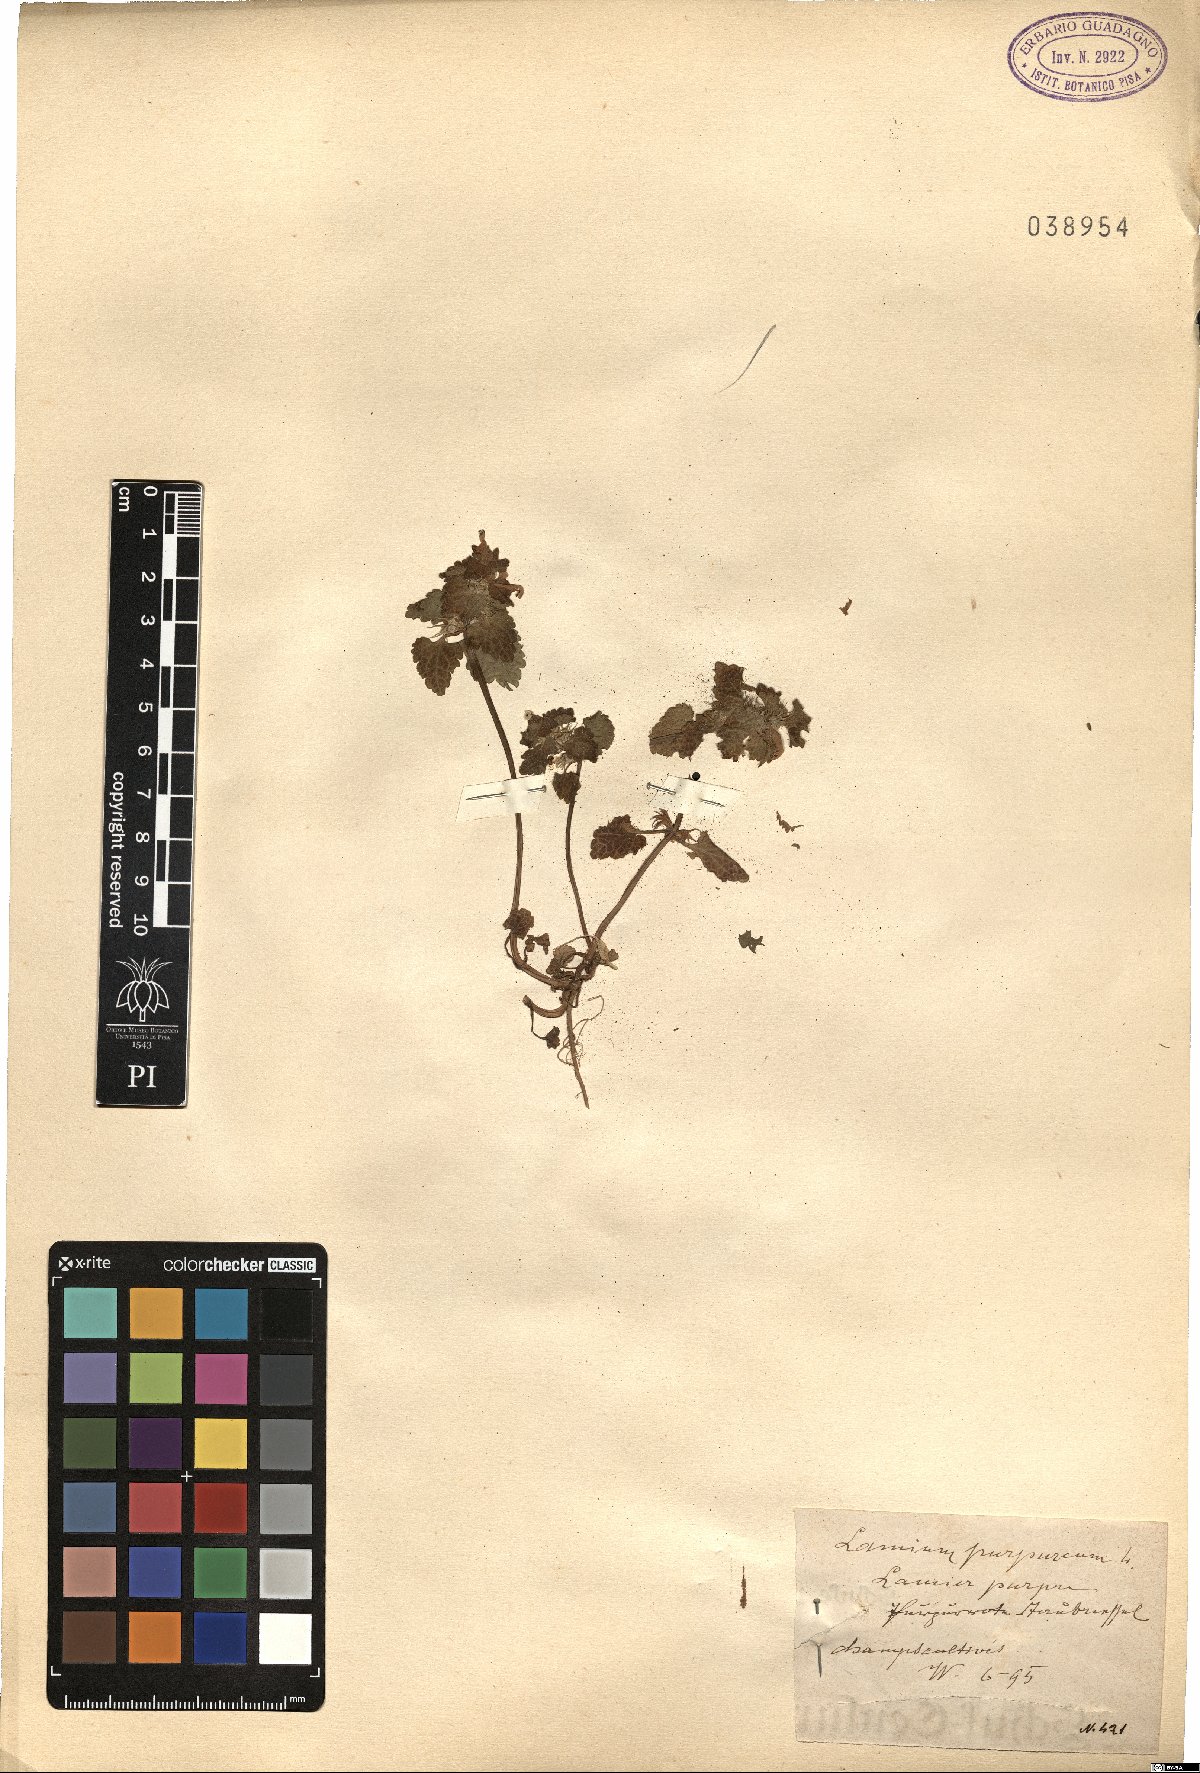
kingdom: Plantae
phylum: Tracheophyta
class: Magnoliopsida
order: Lamiales
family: Lamiaceae
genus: Lamium
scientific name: Lamium purpureum
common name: Red dead-nettle
